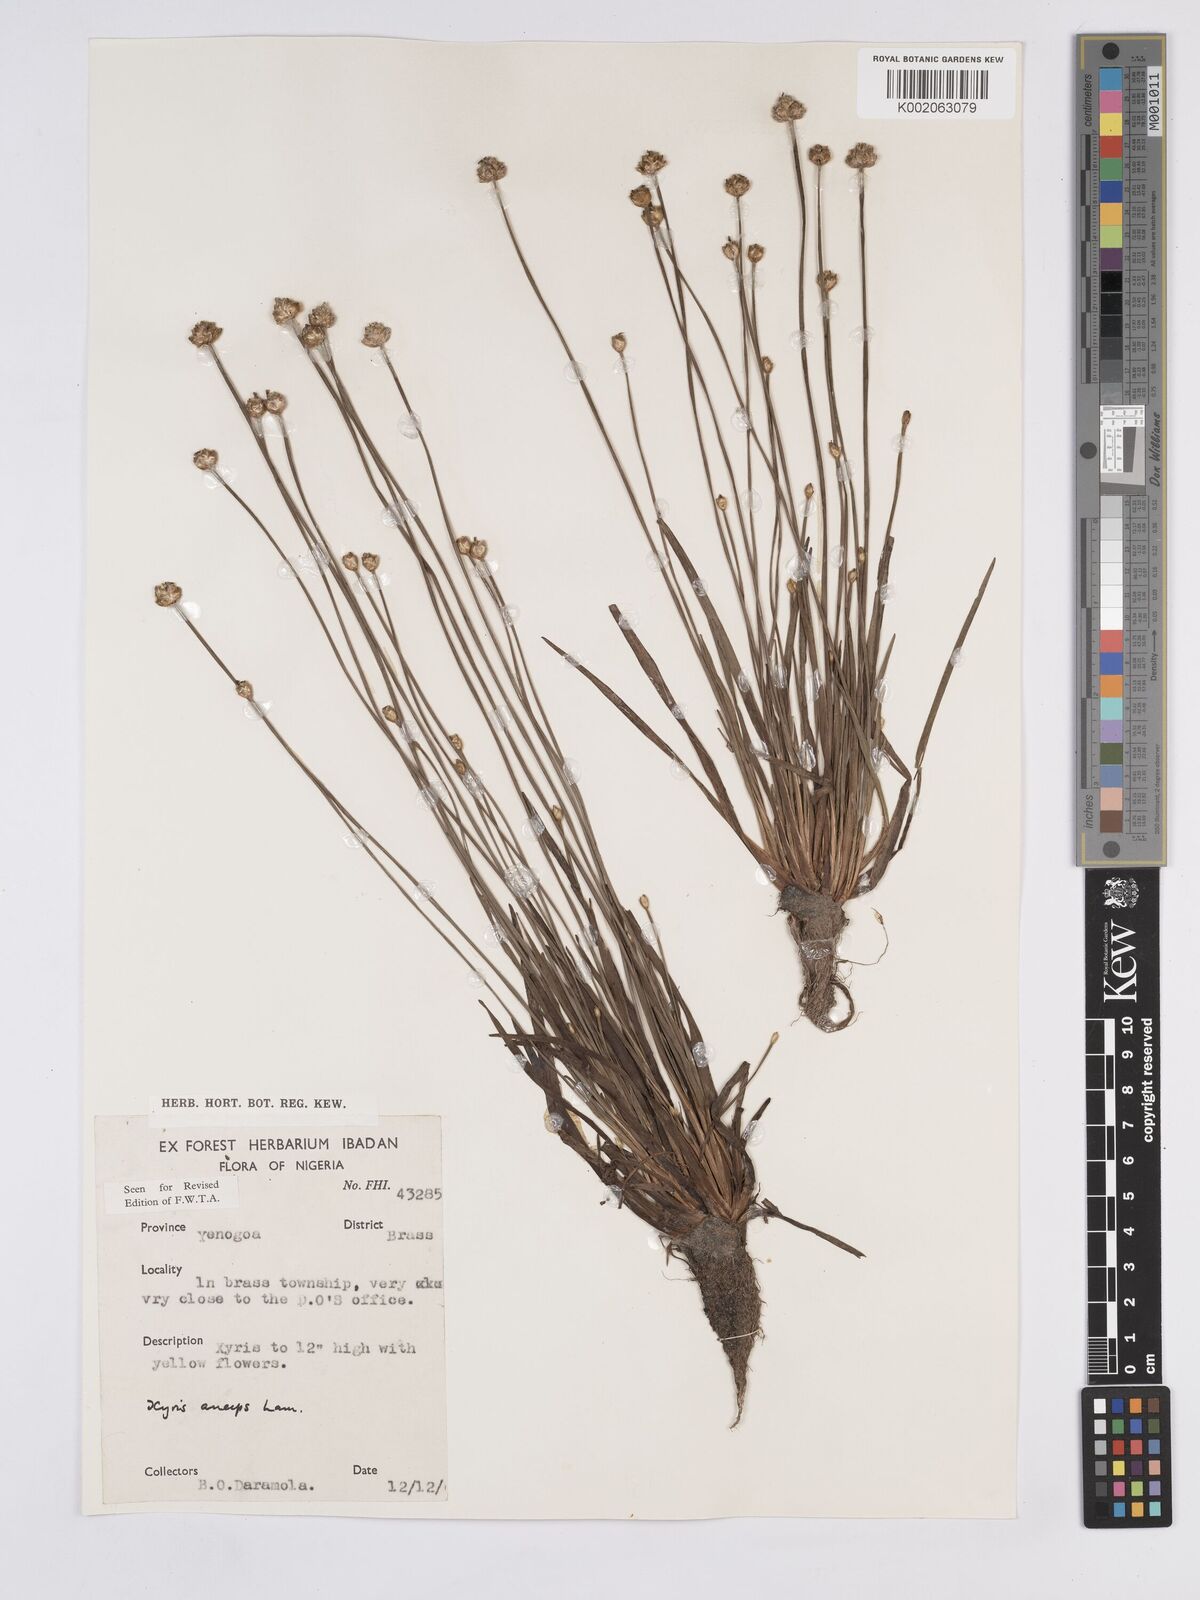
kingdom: Plantae
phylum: Tracheophyta
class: Liliopsida
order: Poales
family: Xyridaceae
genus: Xyris
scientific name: Xyris anceps
